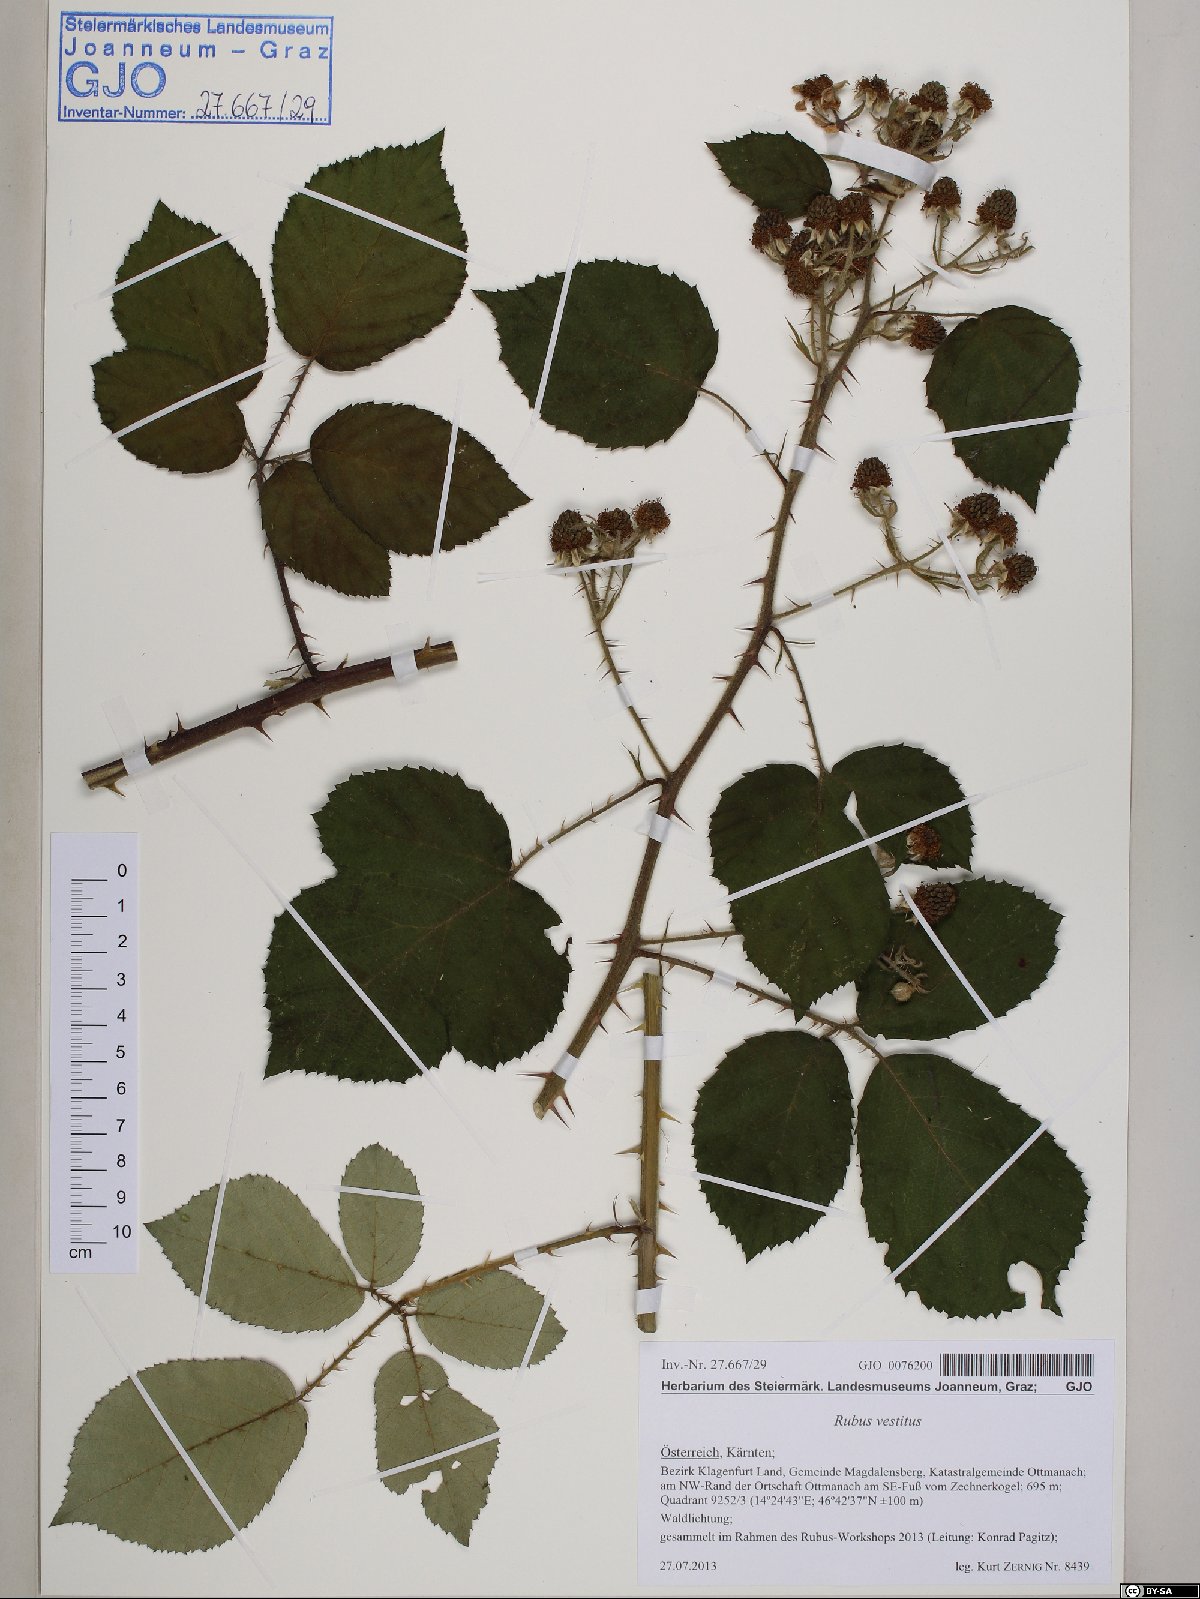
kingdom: Plantae
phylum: Tracheophyta
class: Magnoliopsida
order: Rosales
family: Rosaceae
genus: Rubus
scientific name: Rubus vestitus
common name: European blackberry
